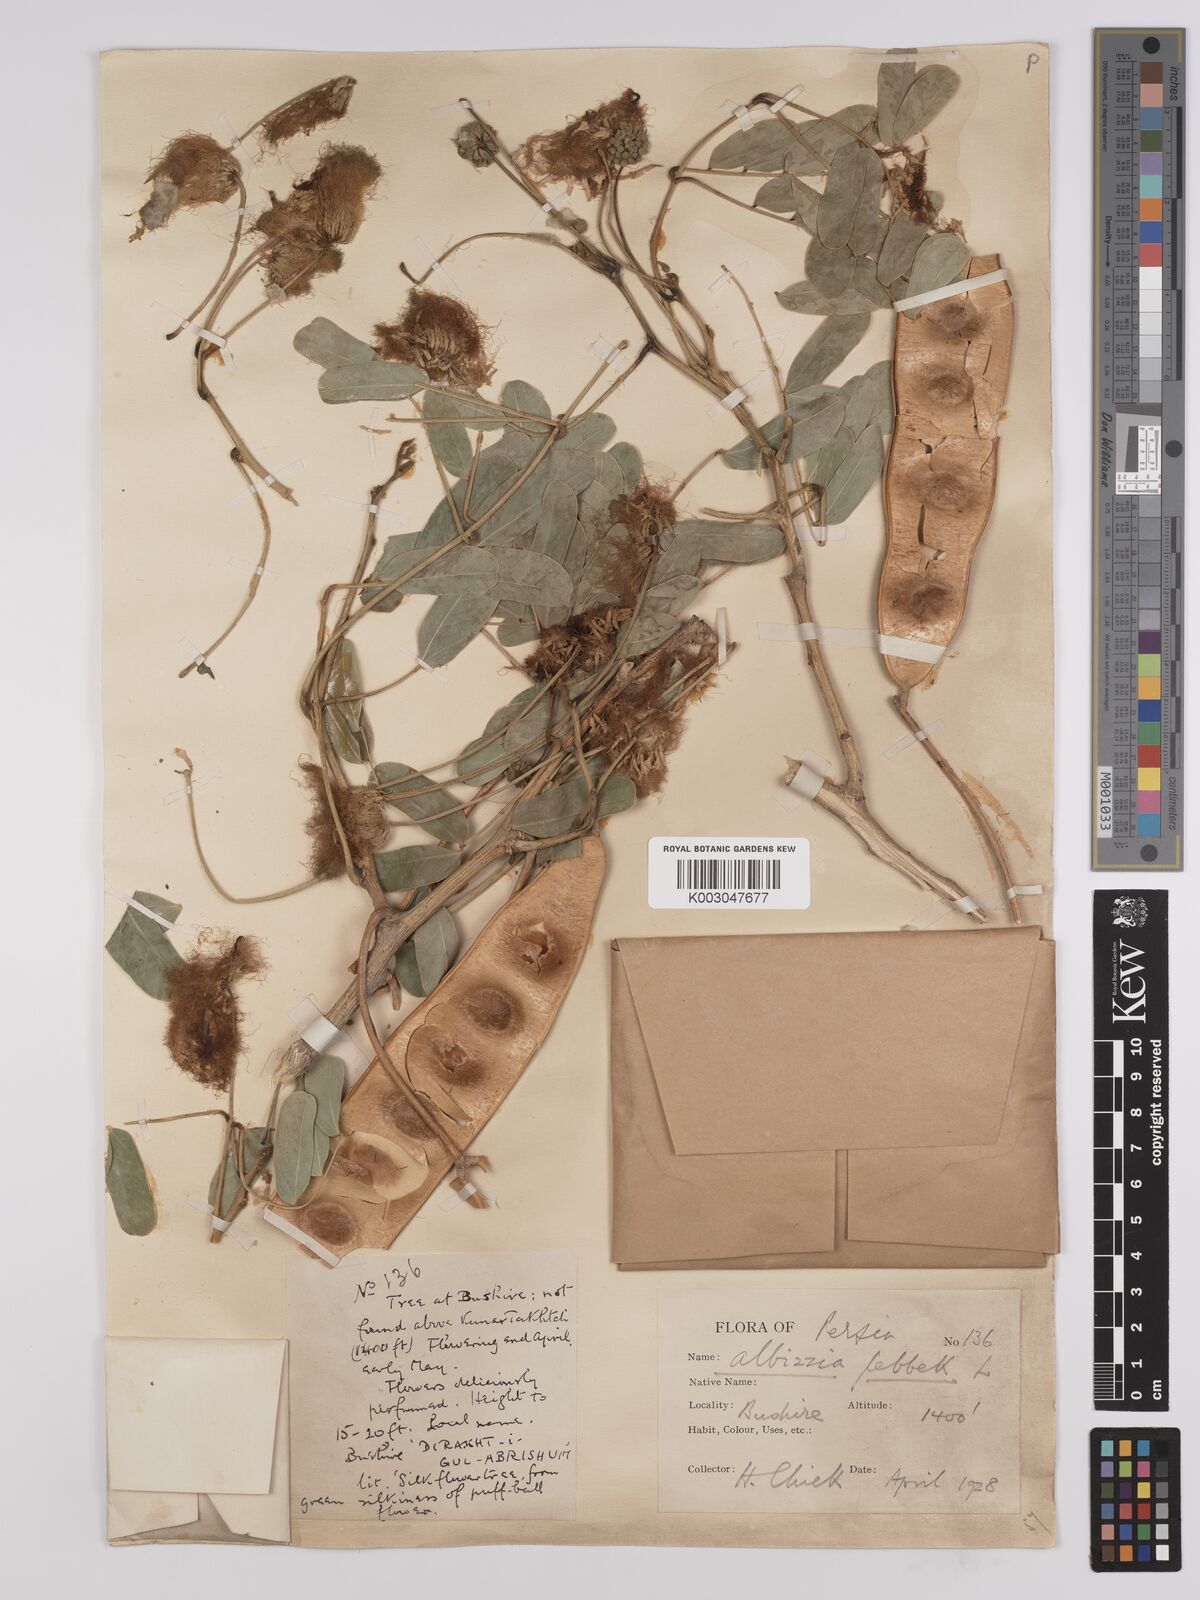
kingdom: Plantae
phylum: Tracheophyta
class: Magnoliopsida
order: Fabales
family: Fabaceae
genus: Albizia
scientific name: Albizia lebbeck
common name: Woman's tongue
